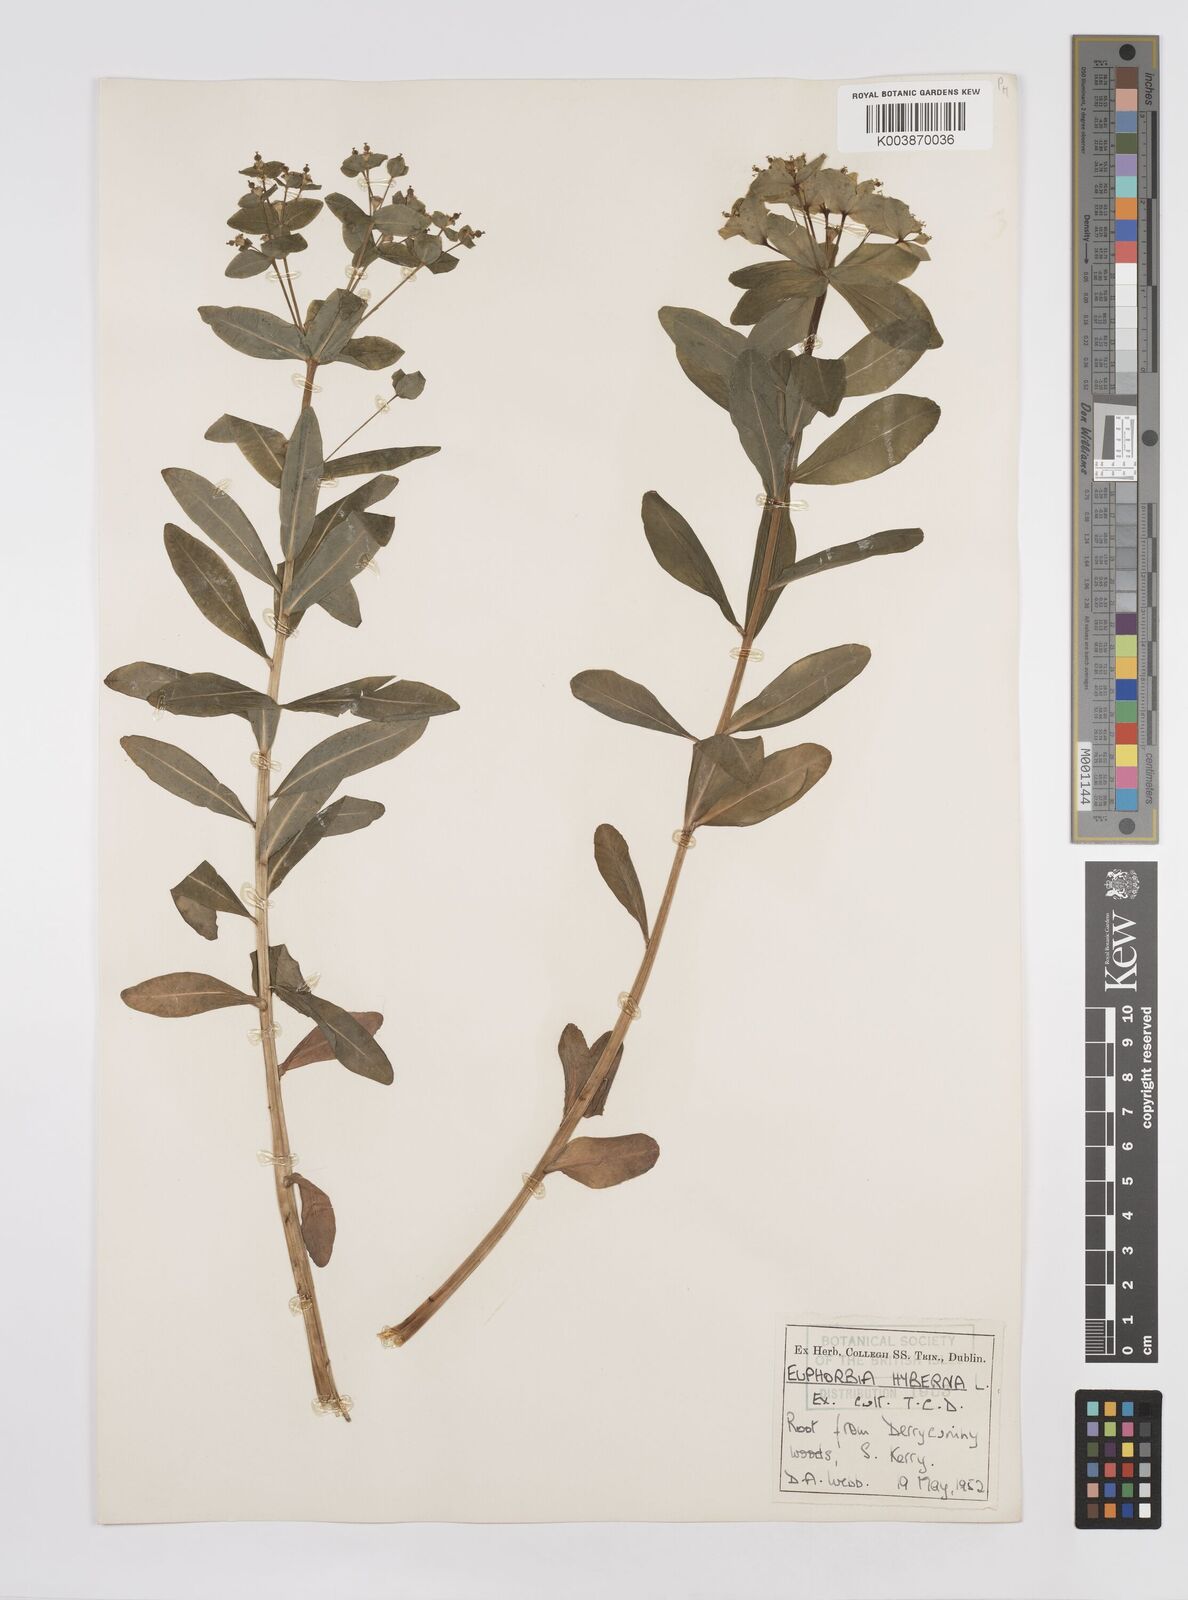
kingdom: Plantae
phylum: Tracheophyta
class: Magnoliopsida
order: Malpighiales
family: Euphorbiaceae
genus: Euphorbia
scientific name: Euphorbia hyberna
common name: Irish spurge
